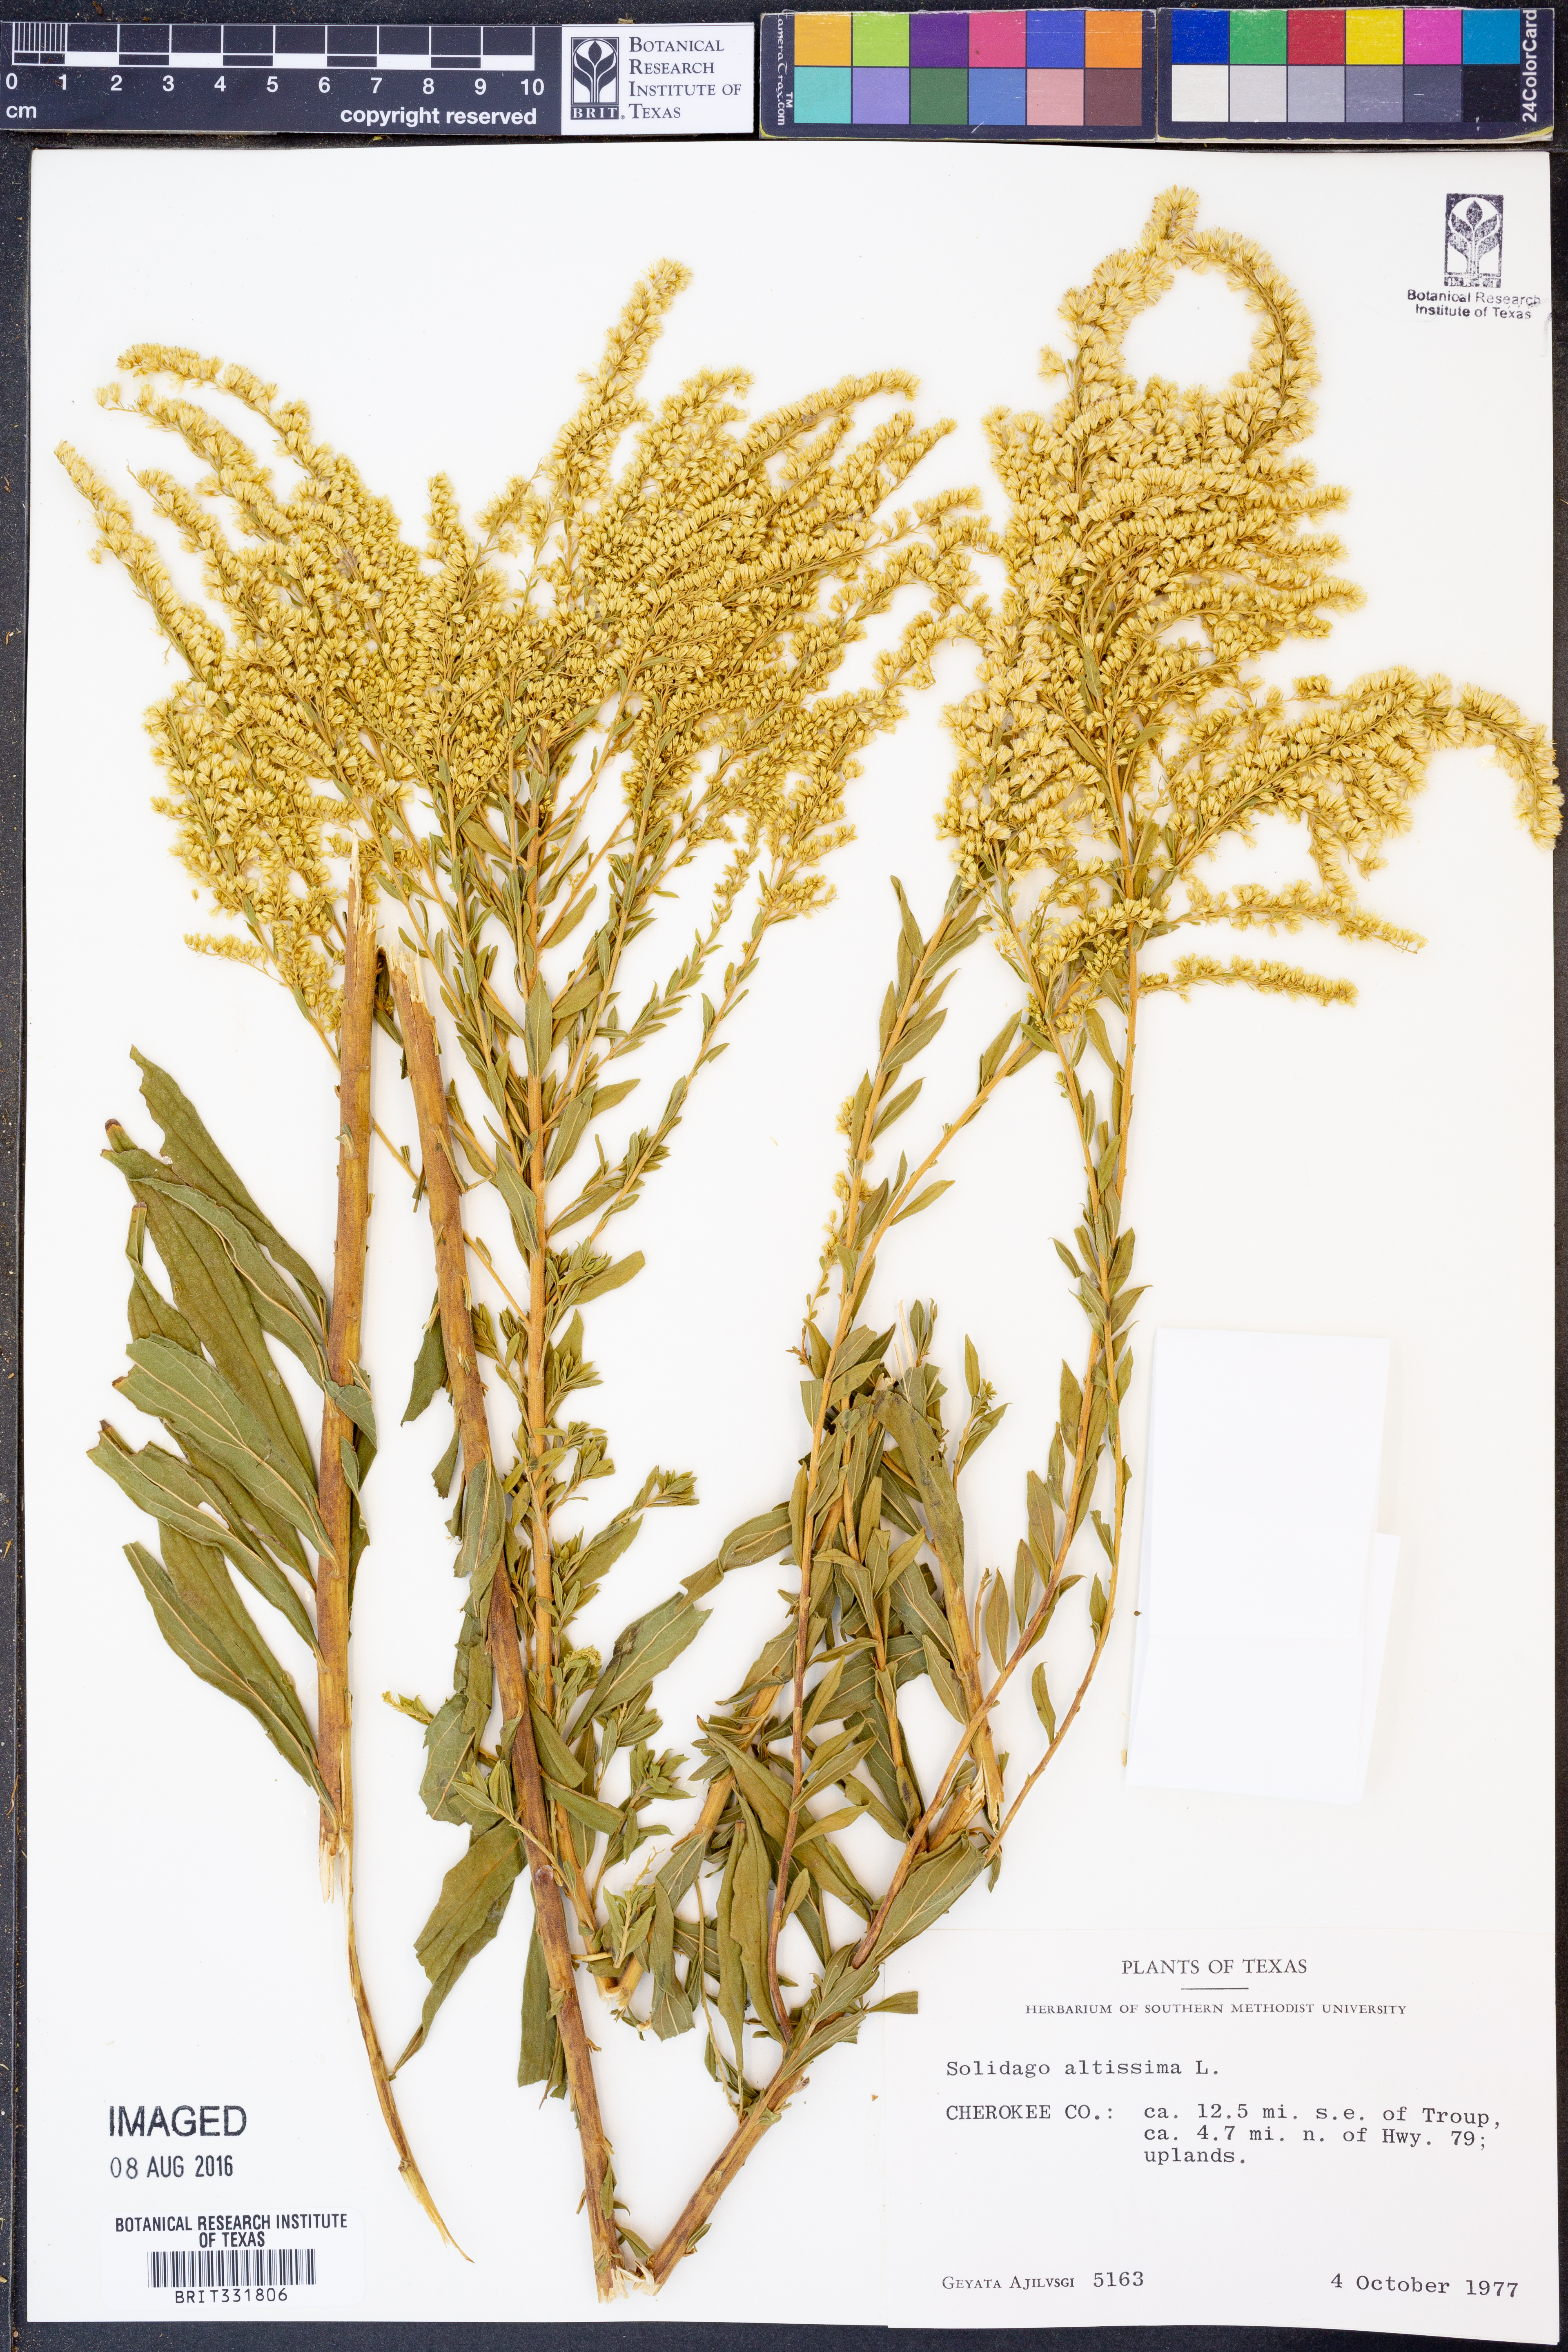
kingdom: Plantae
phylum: Tracheophyta
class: Magnoliopsida
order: Asterales
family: Asteraceae
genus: Solidago
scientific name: Solidago altissima
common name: Late goldenrod
